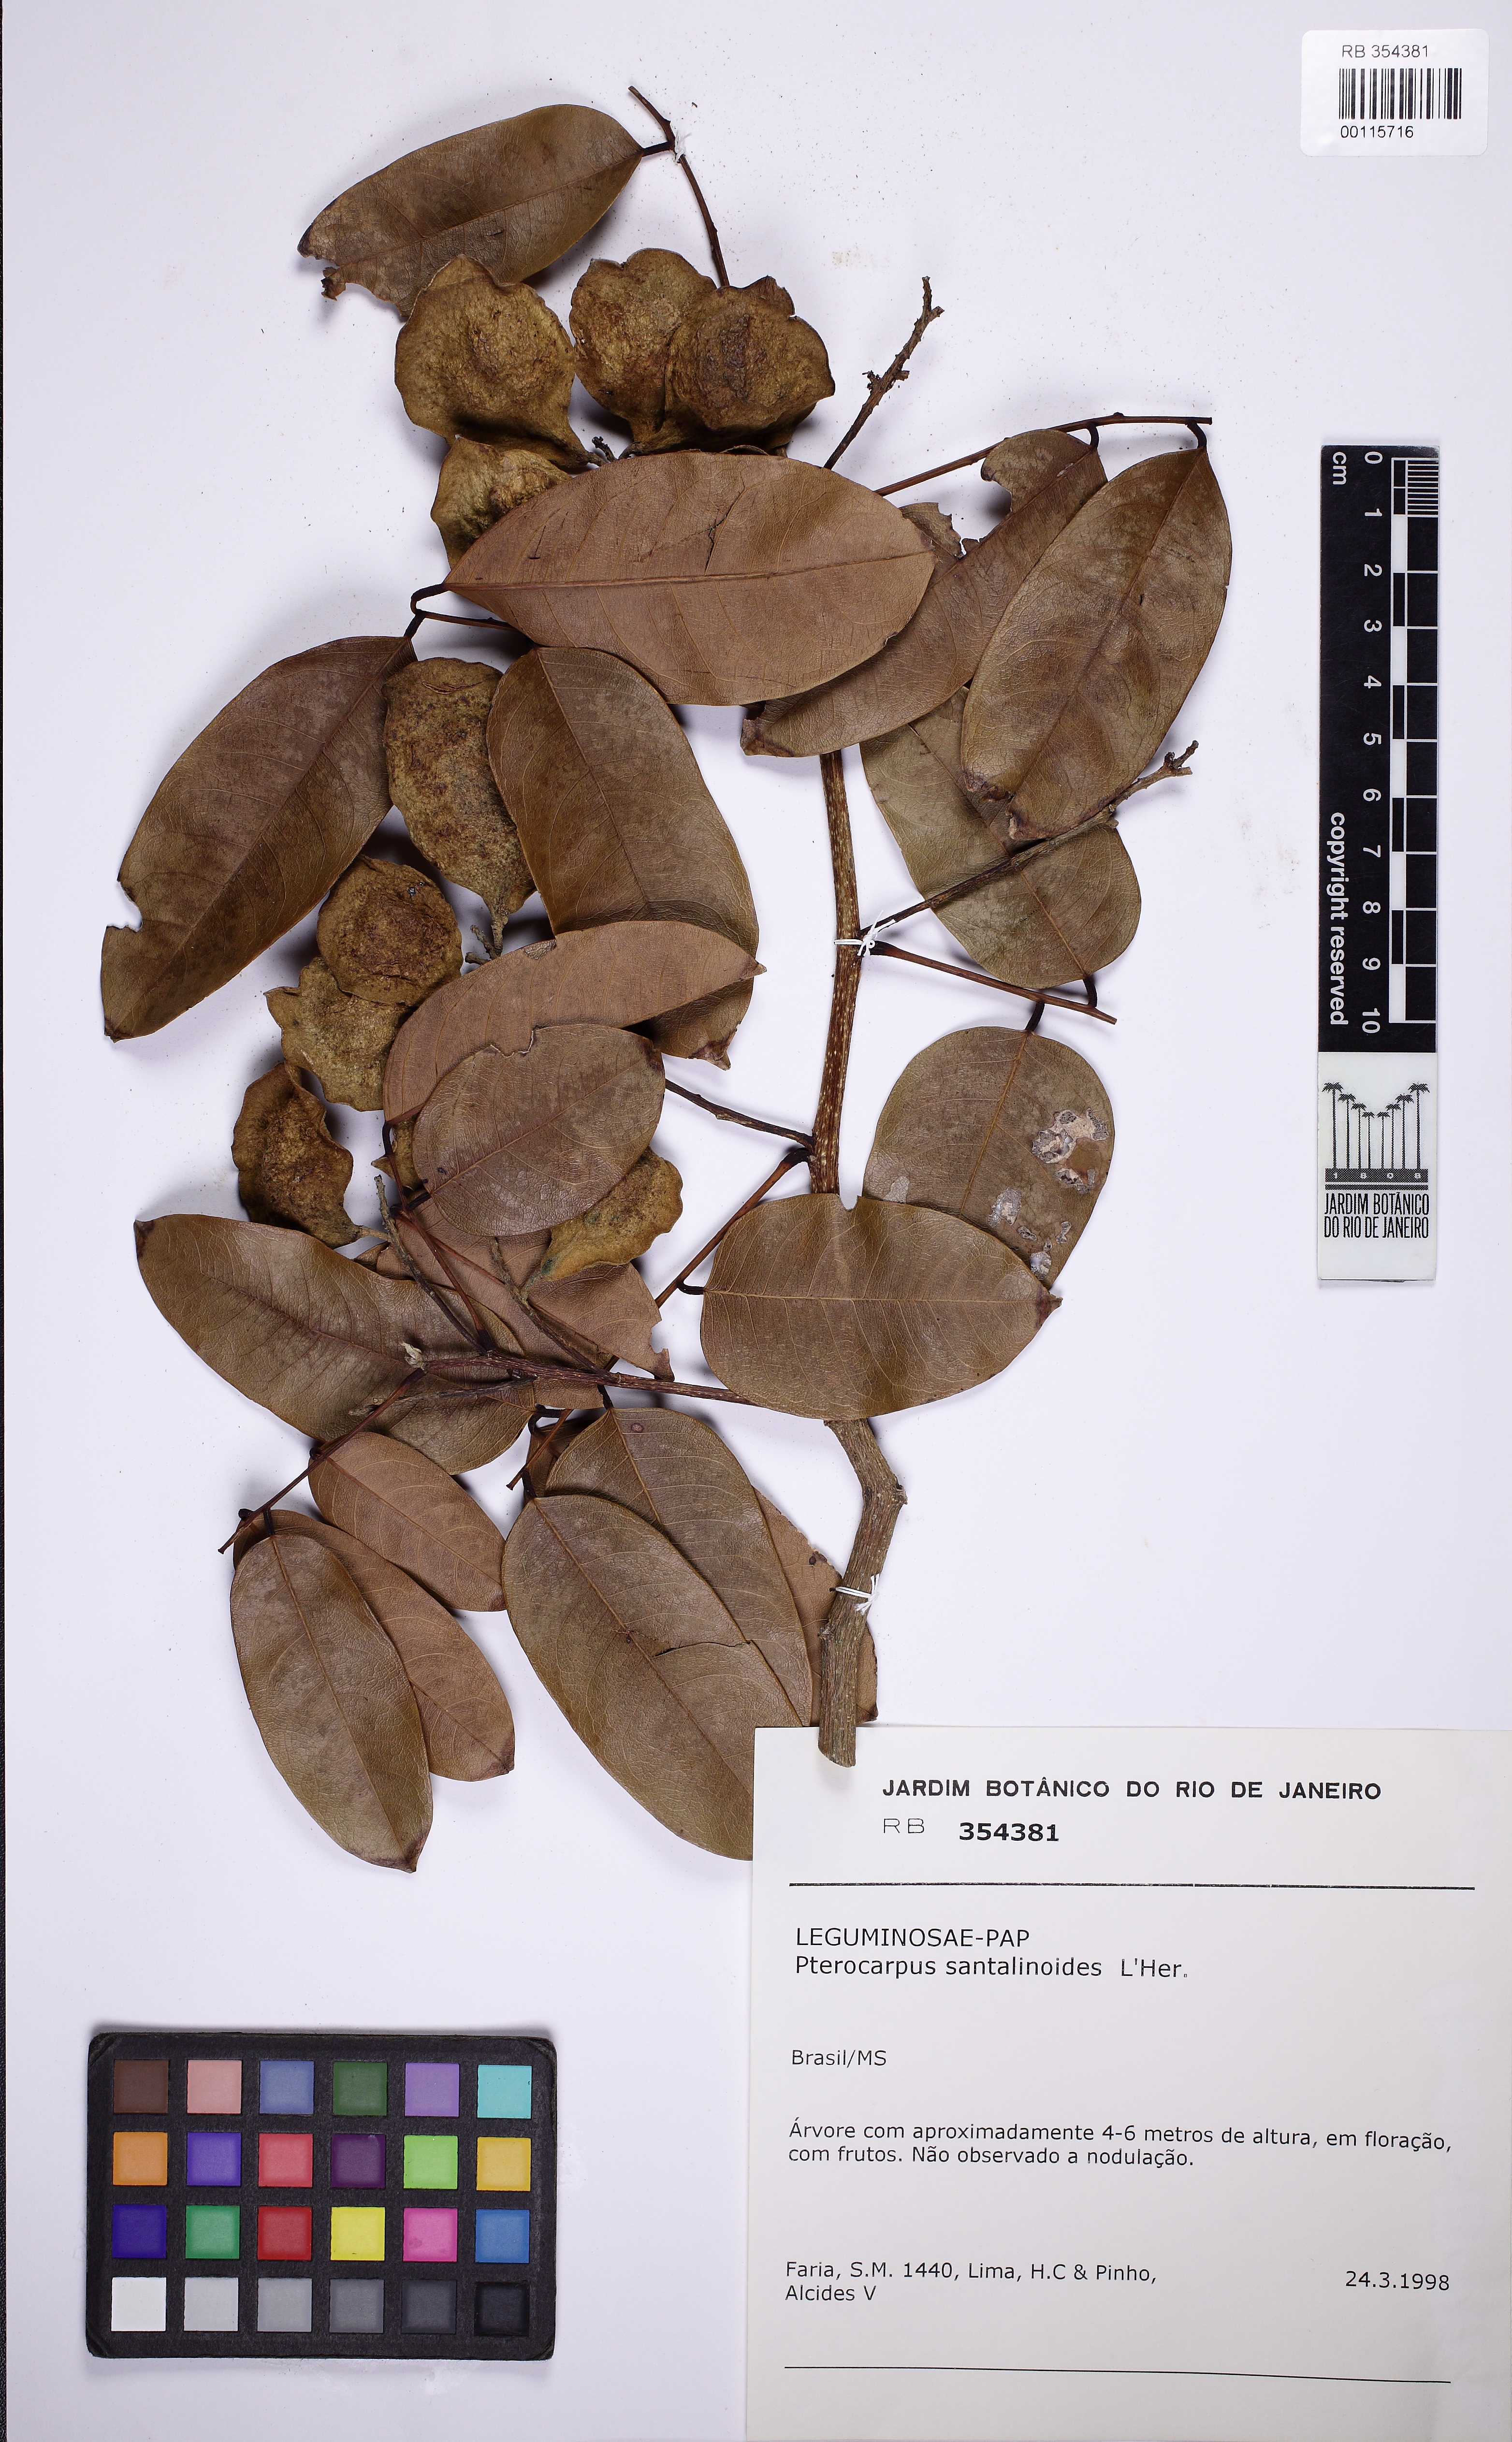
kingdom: Plantae
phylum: Tracheophyta
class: Magnoliopsida
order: Fabales
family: Fabaceae
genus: Pterocarpus
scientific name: Pterocarpus santalinoides
